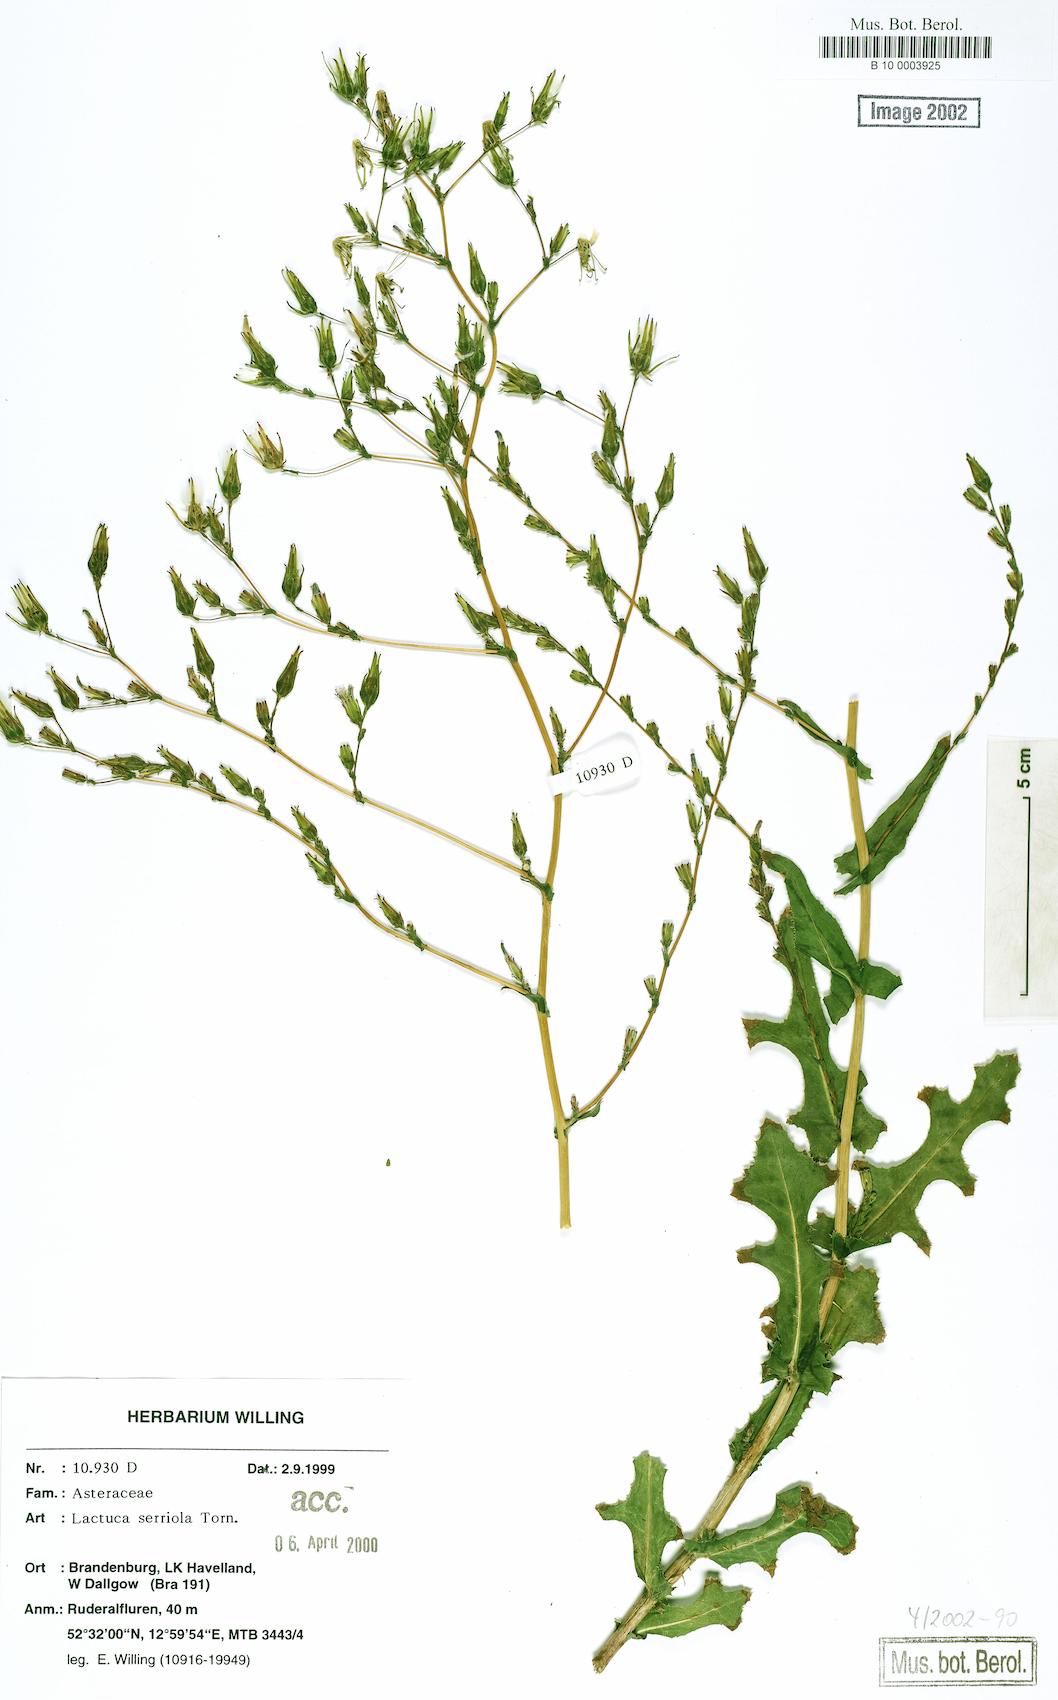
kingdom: Plantae
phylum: Tracheophyta
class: Magnoliopsida
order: Asterales
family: Asteraceae
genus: Lactuca
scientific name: Lactuca serriola
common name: Prickly lettuce
